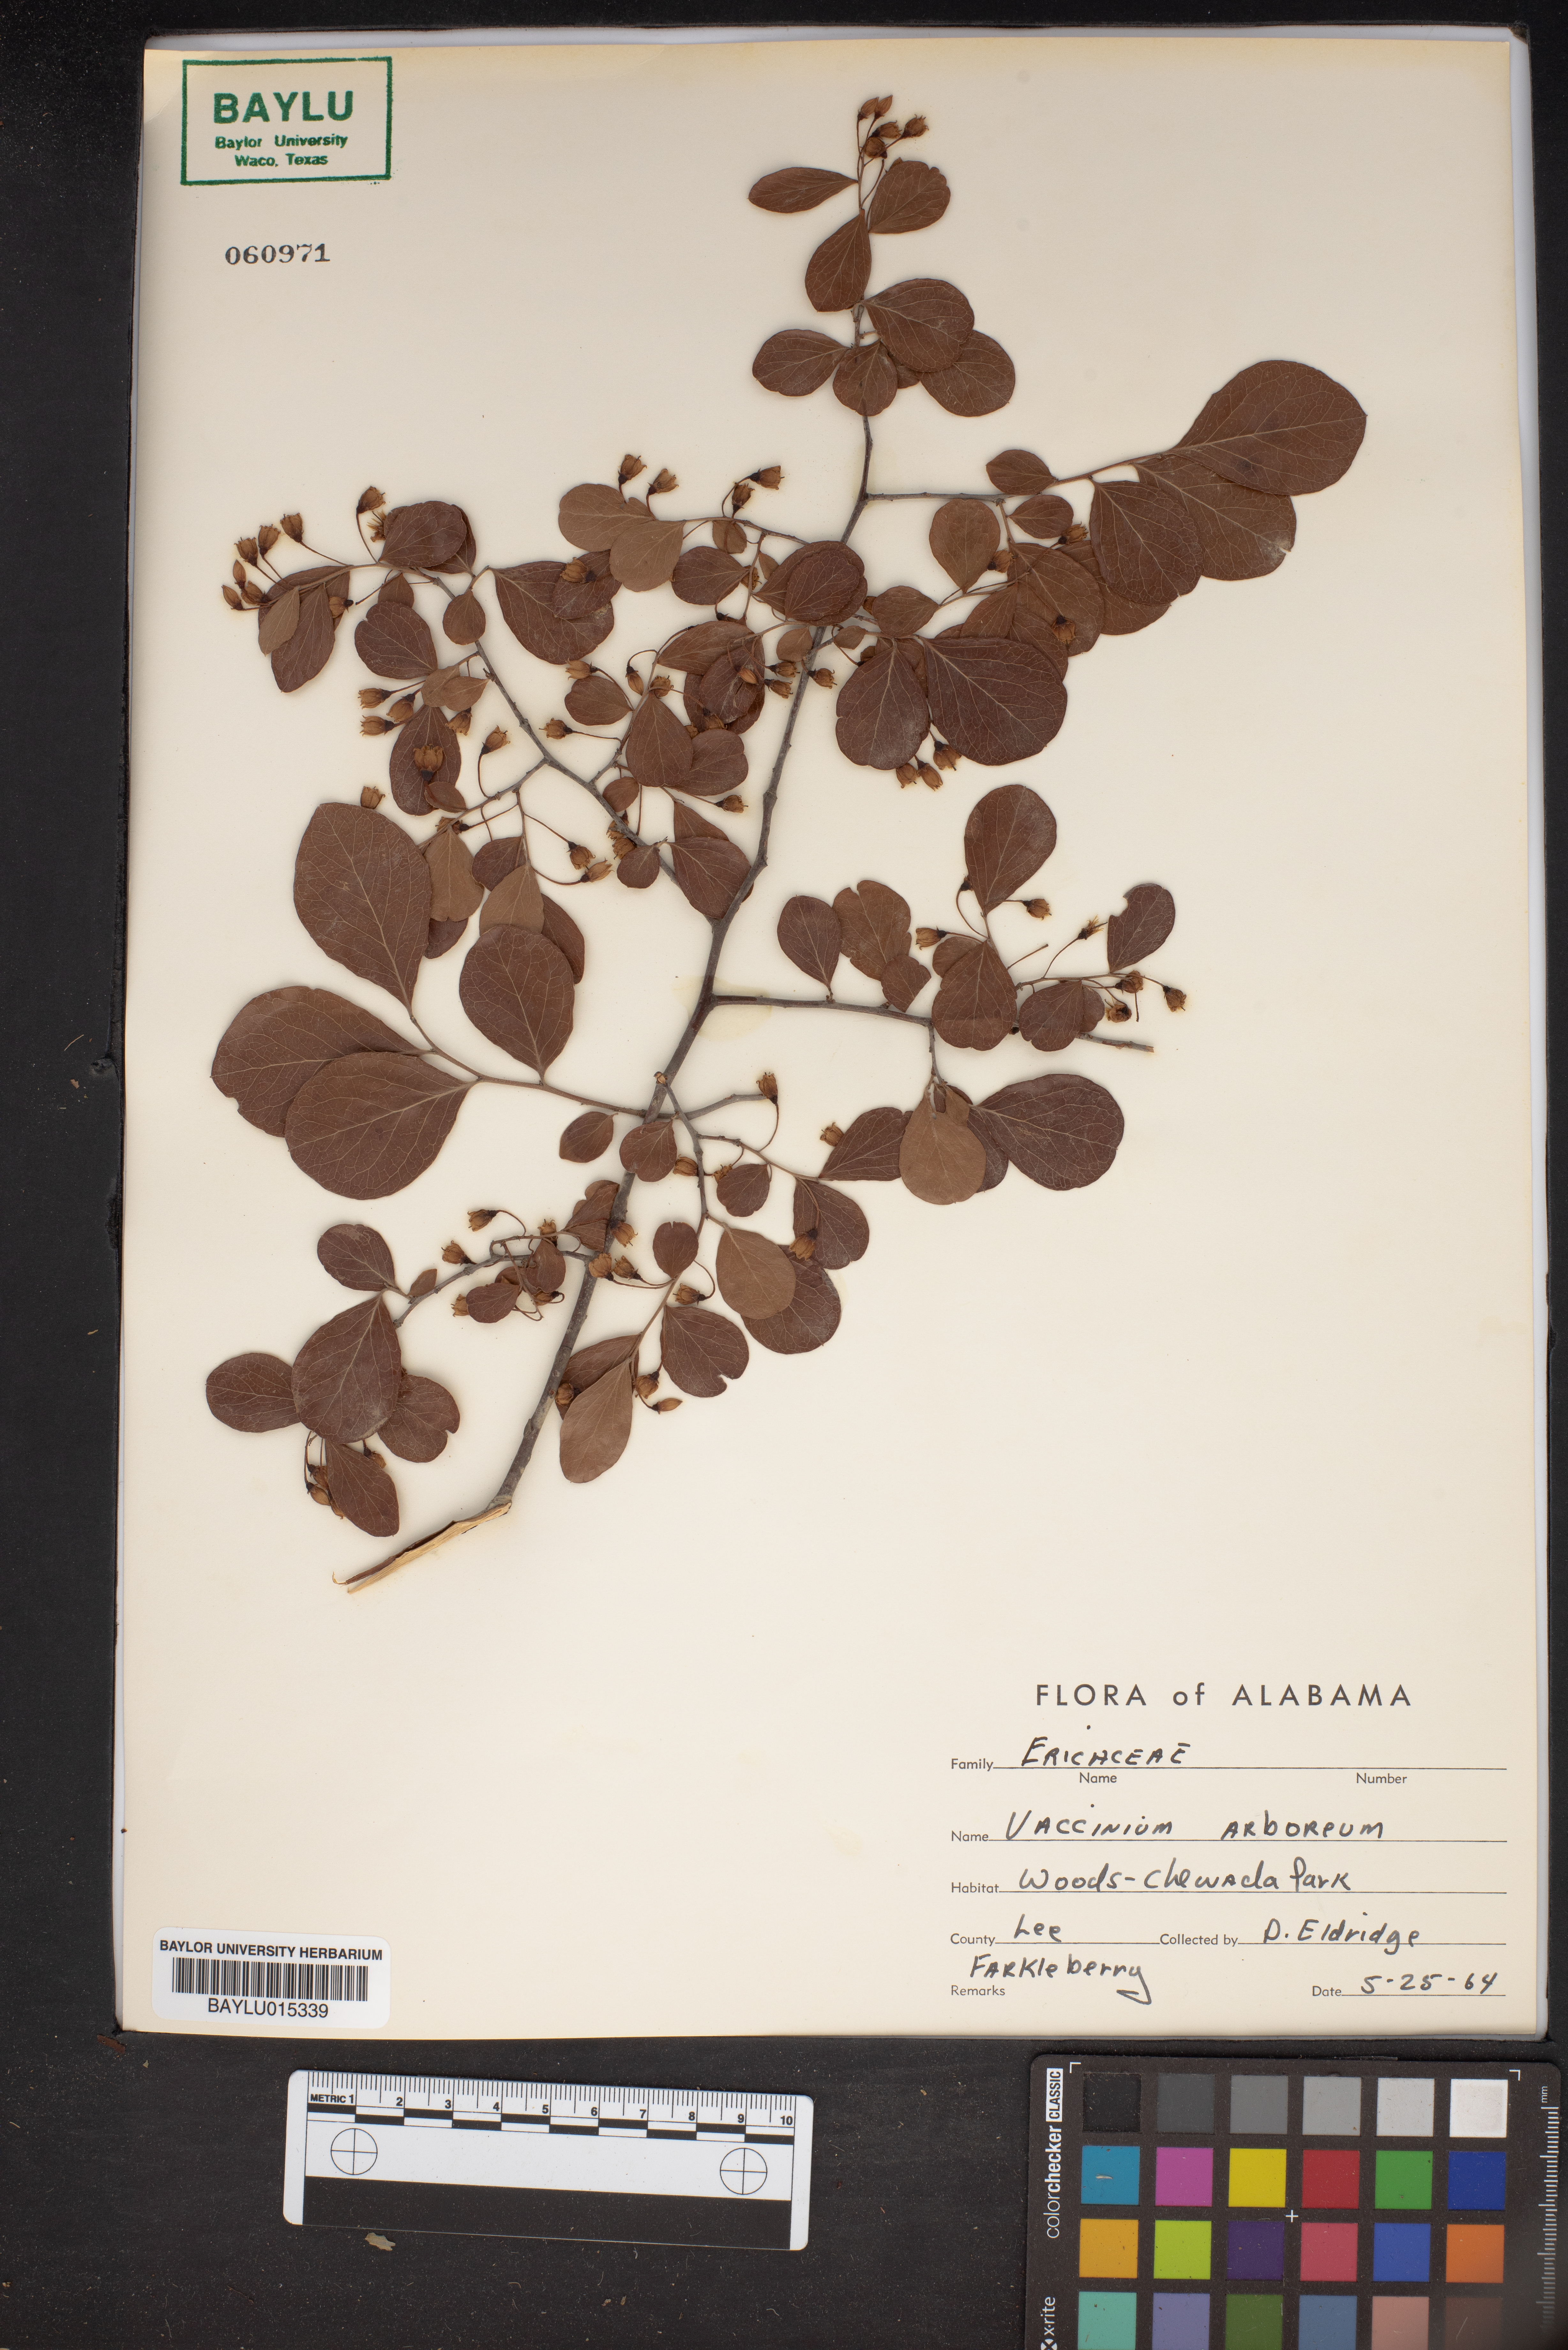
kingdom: Plantae
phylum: Tracheophyta
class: Magnoliopsida
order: Ericales
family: Ericaceae
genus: Vaccinium
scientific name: Vaccinium arboreum
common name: Farkleberry
